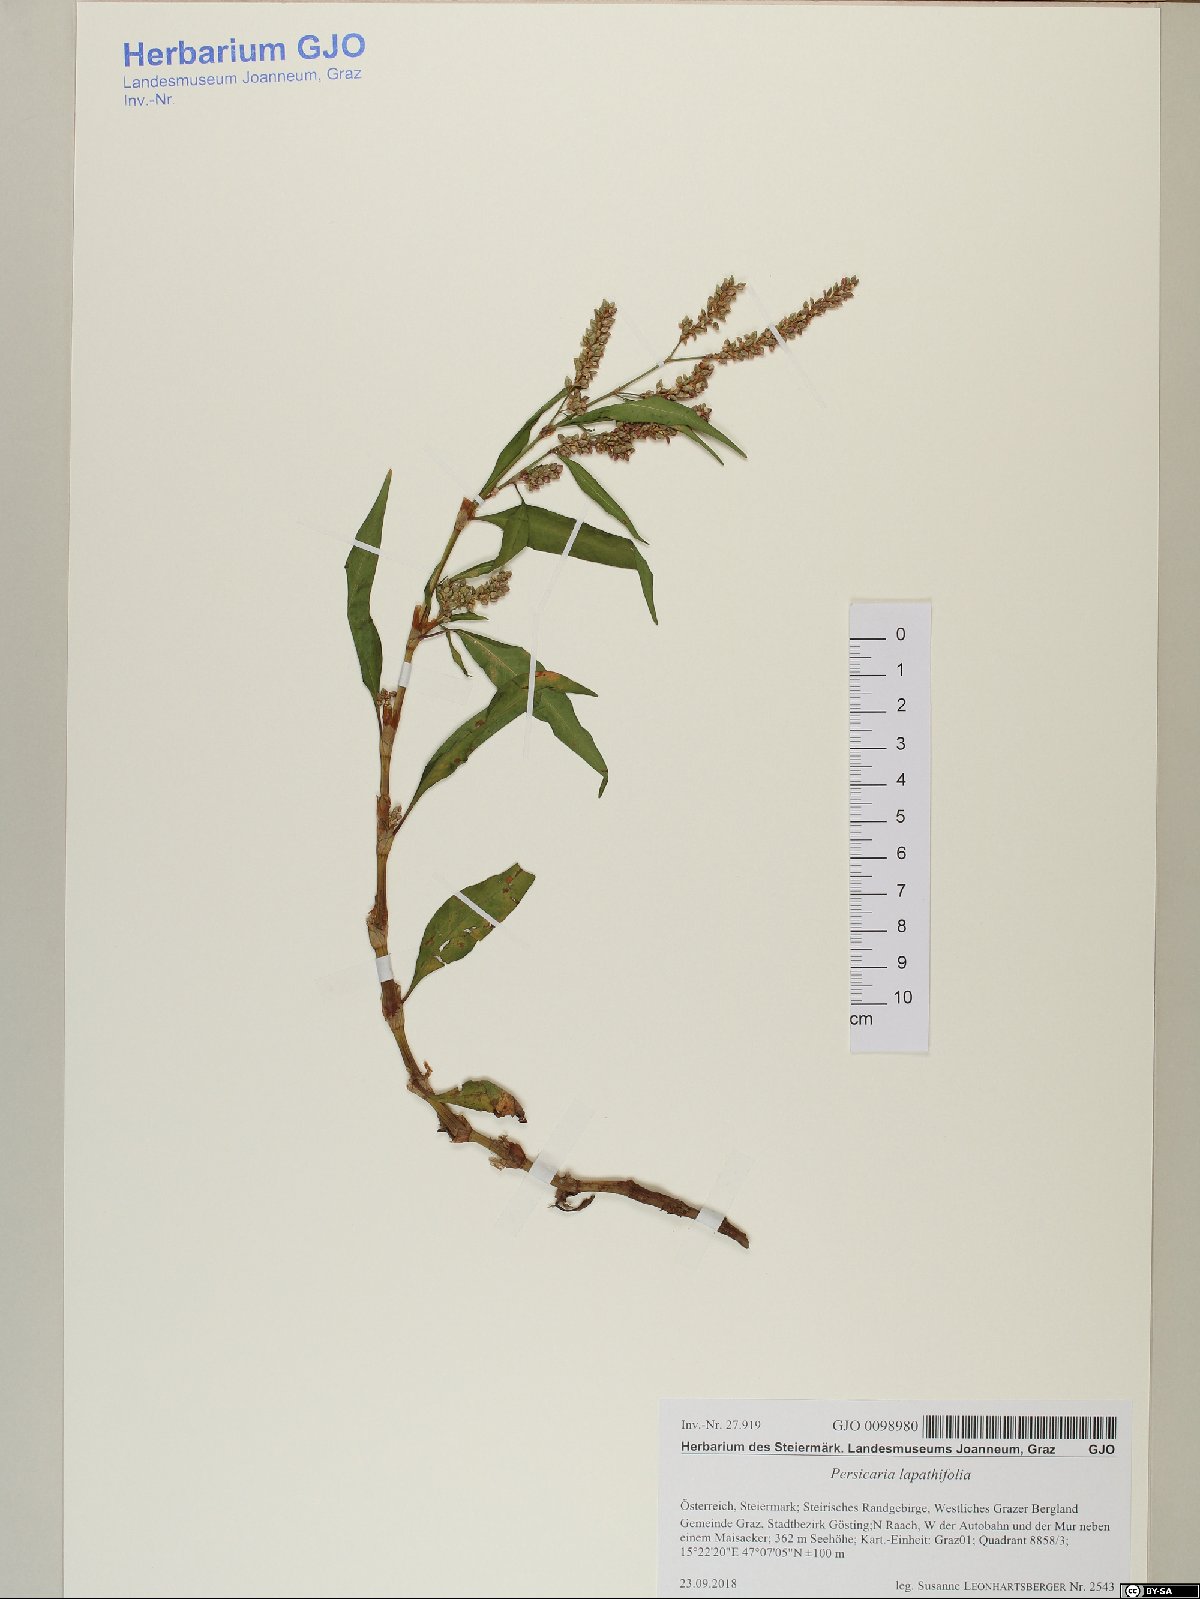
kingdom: Plantae
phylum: Tracheophyta
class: Magnoliopsida
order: Caryophyllales
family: Polygonaceae
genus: Persicaria
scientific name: Persicaria lapathifolia
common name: Curlytop knotweed
